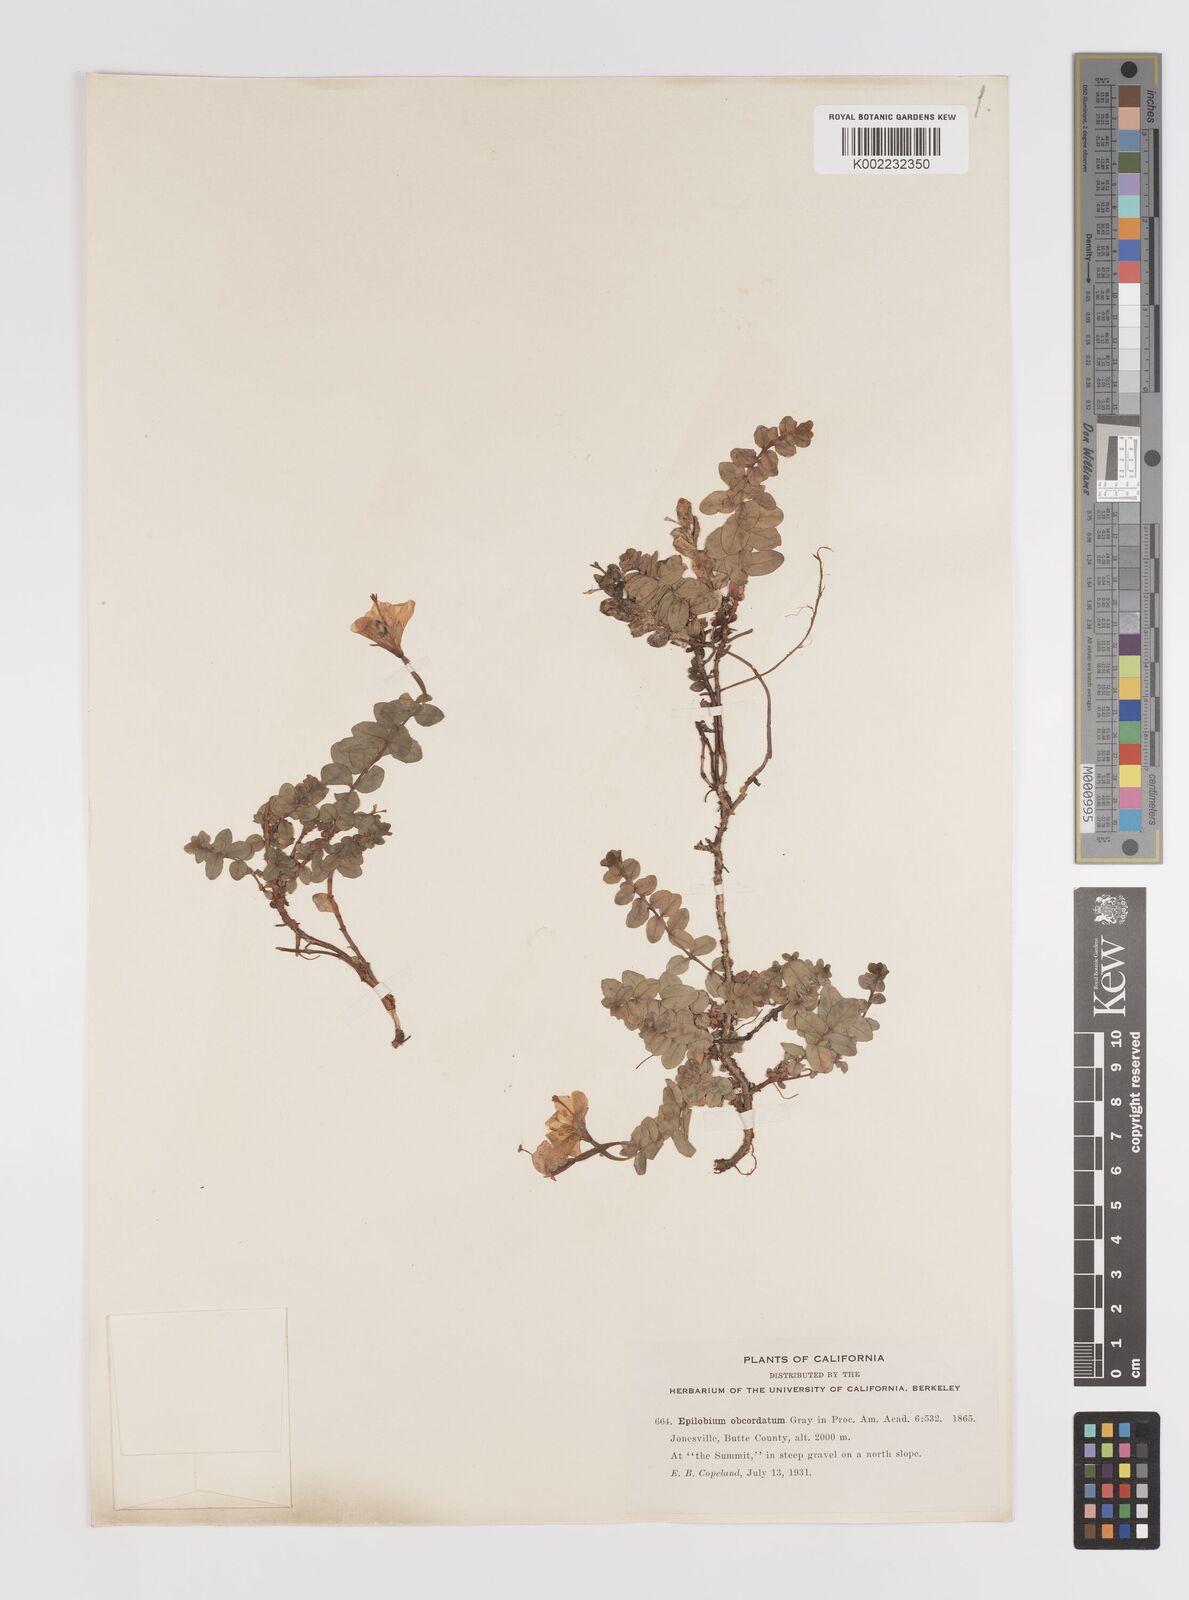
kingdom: Plantae
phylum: Tracheophyta
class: Magnoliopsida
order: Myrtales
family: Onagraceae
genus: Epilobium
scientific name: Epilobium obcordatum
